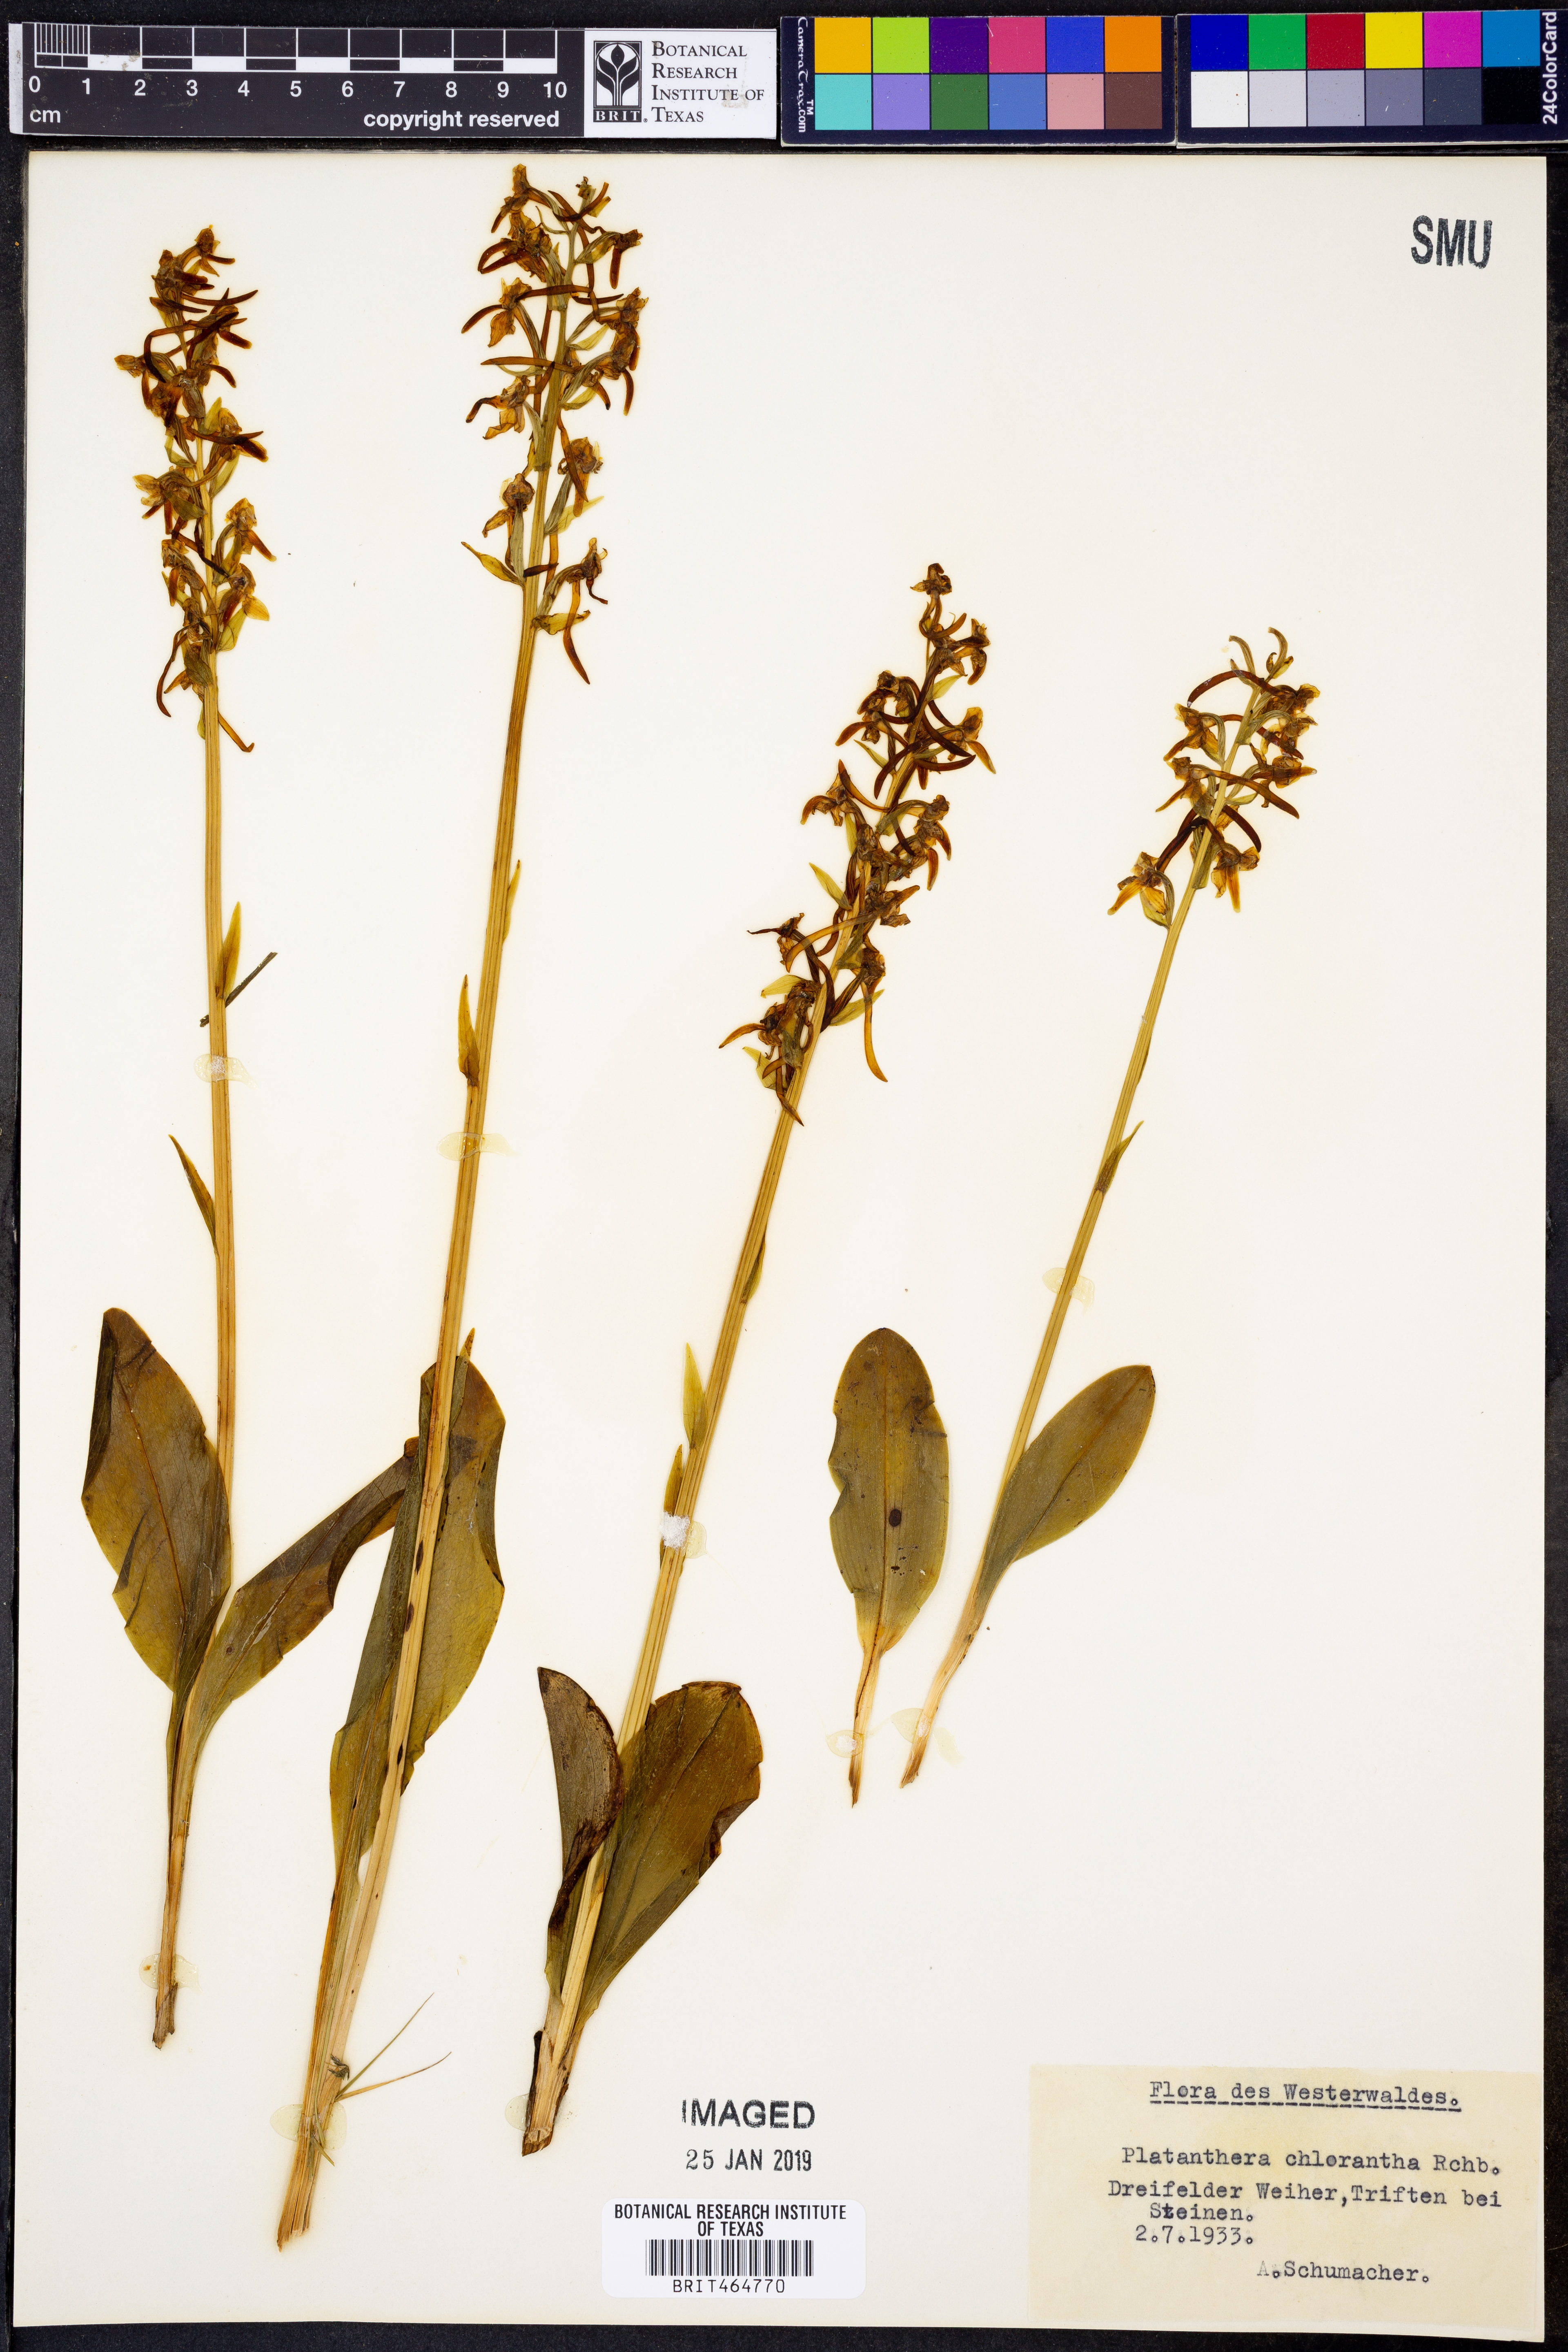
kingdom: Plantae
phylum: Tracheophyta
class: Liliopsida
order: Asparagales
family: Orchidaceae
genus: Platanthera
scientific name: Platanthera chlorantha
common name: Greater butterfly-orchid
